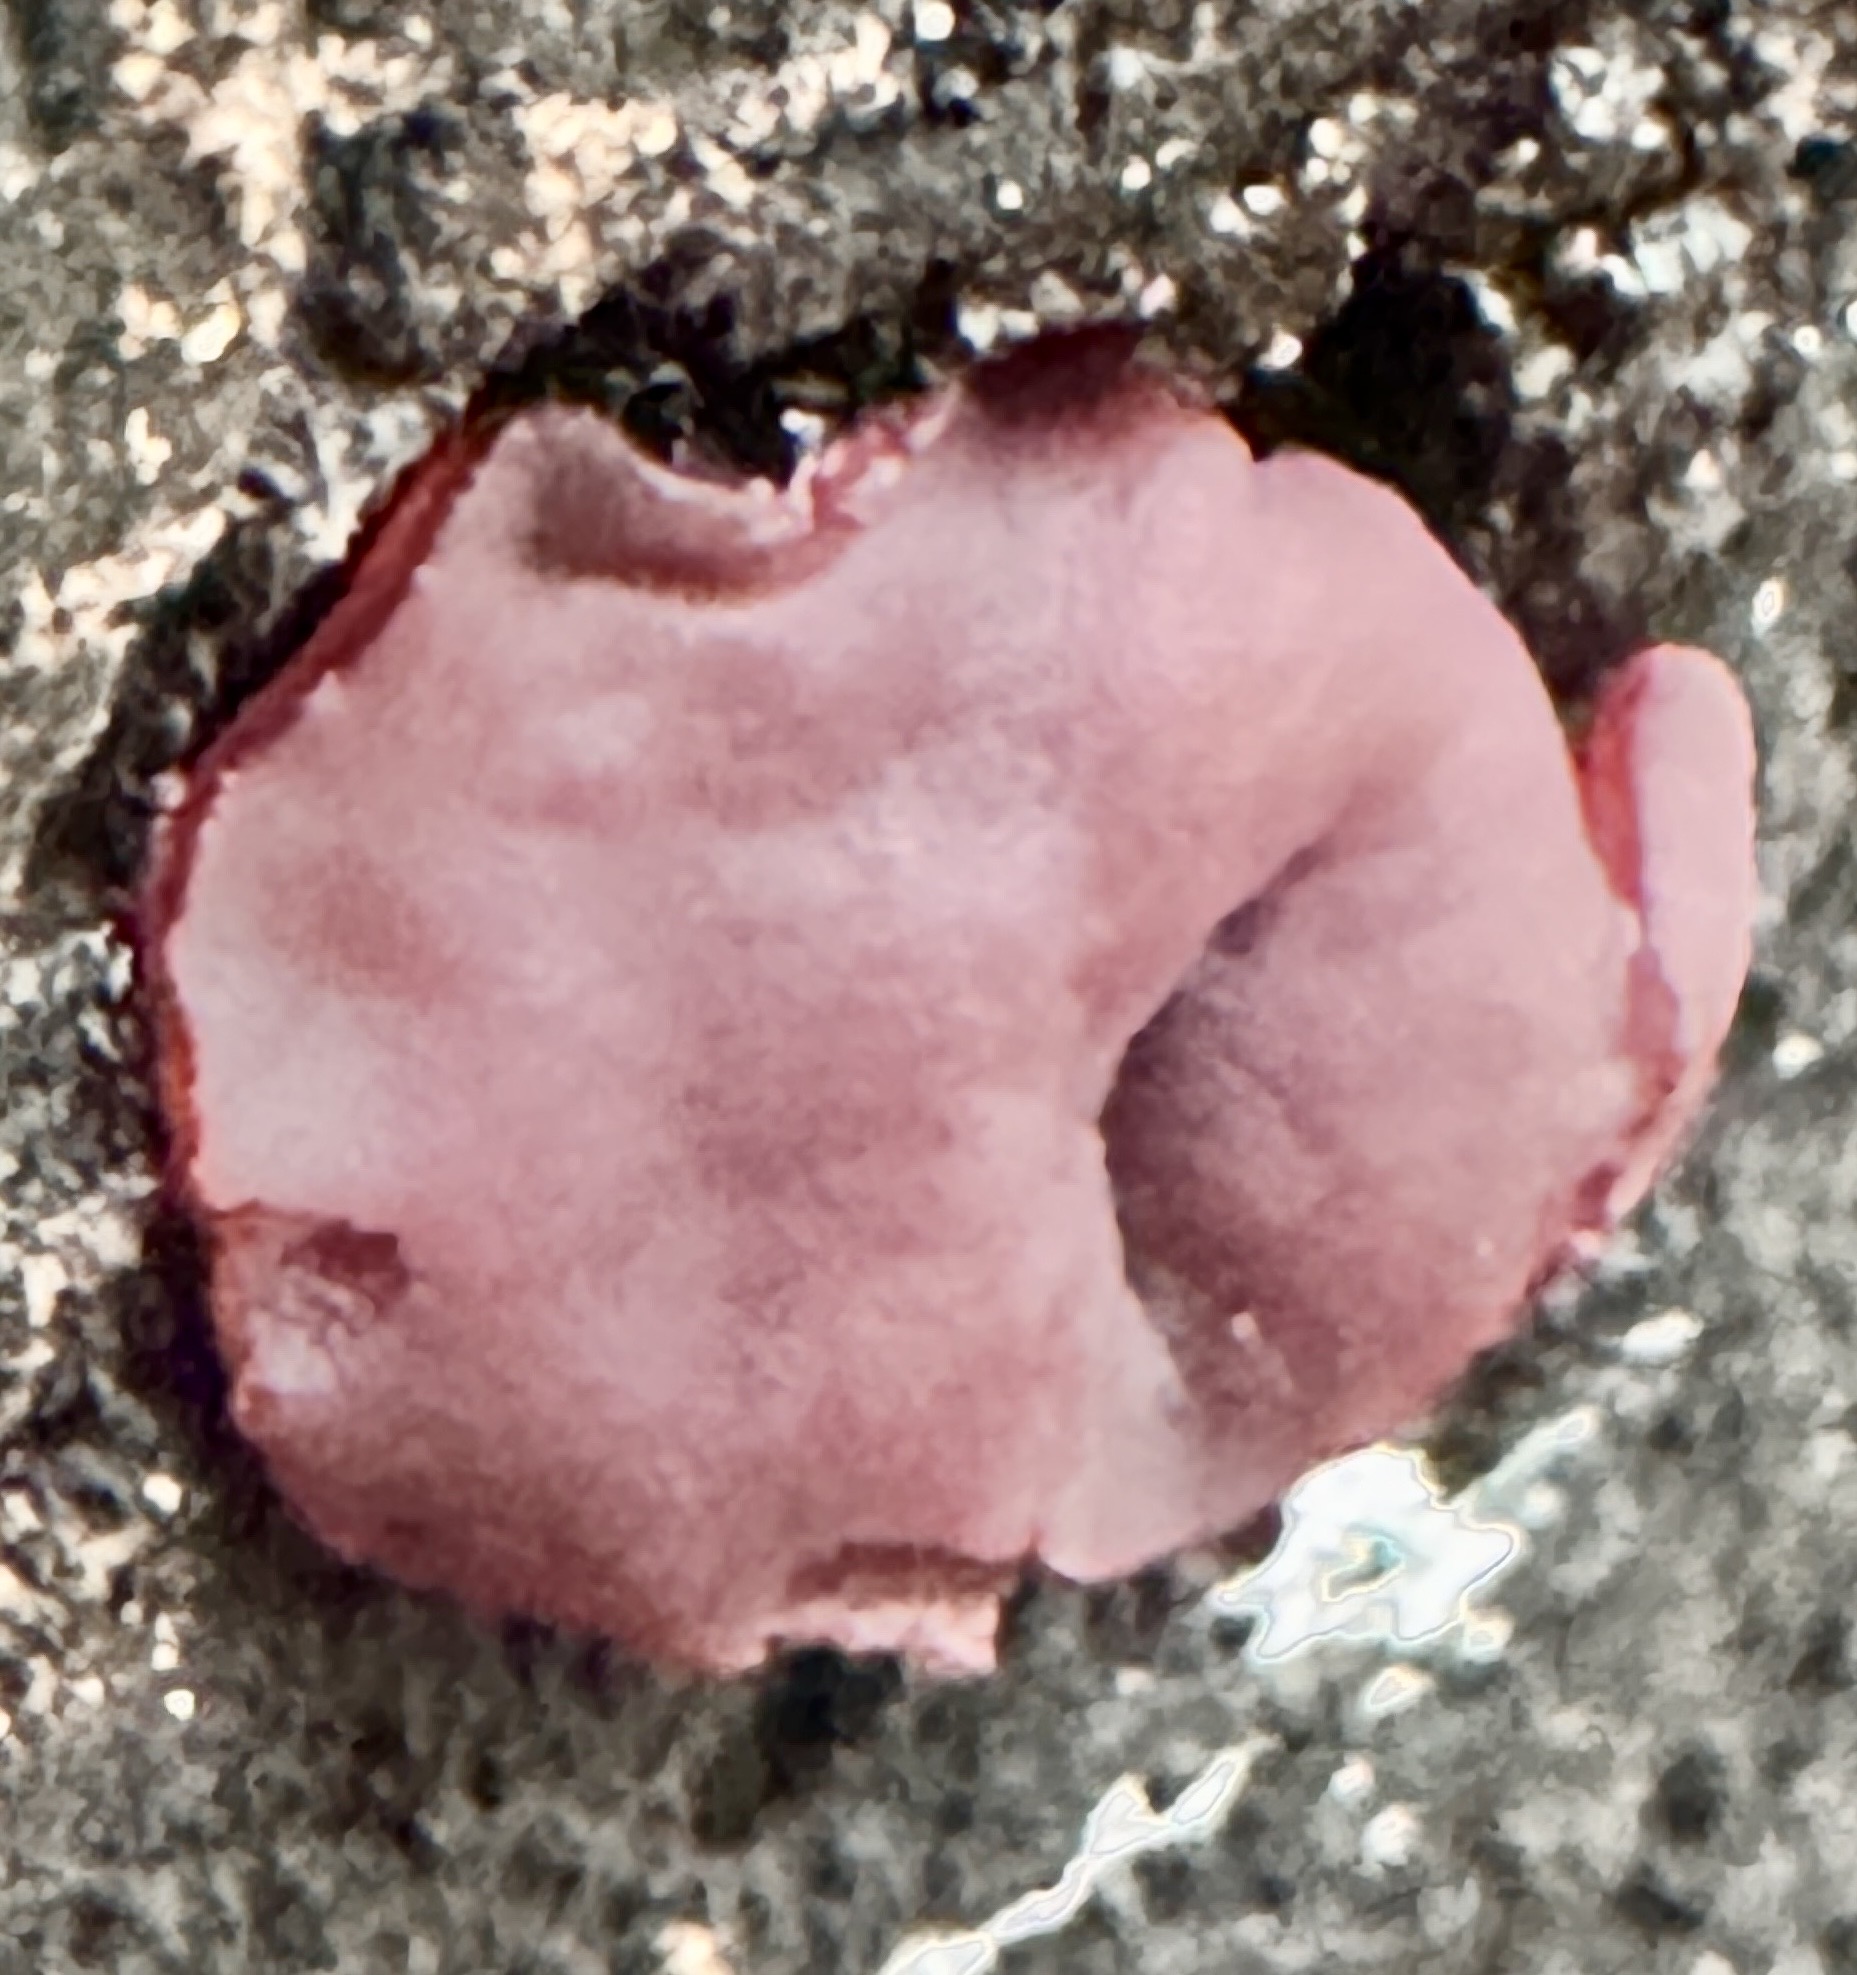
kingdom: Fungi
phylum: Ascomycota
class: Leotiomycetes
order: Helotiales
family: Gelatinodiscaceae
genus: Ascocoryne
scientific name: Ascocoryne cylichnium
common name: stor sejskive
